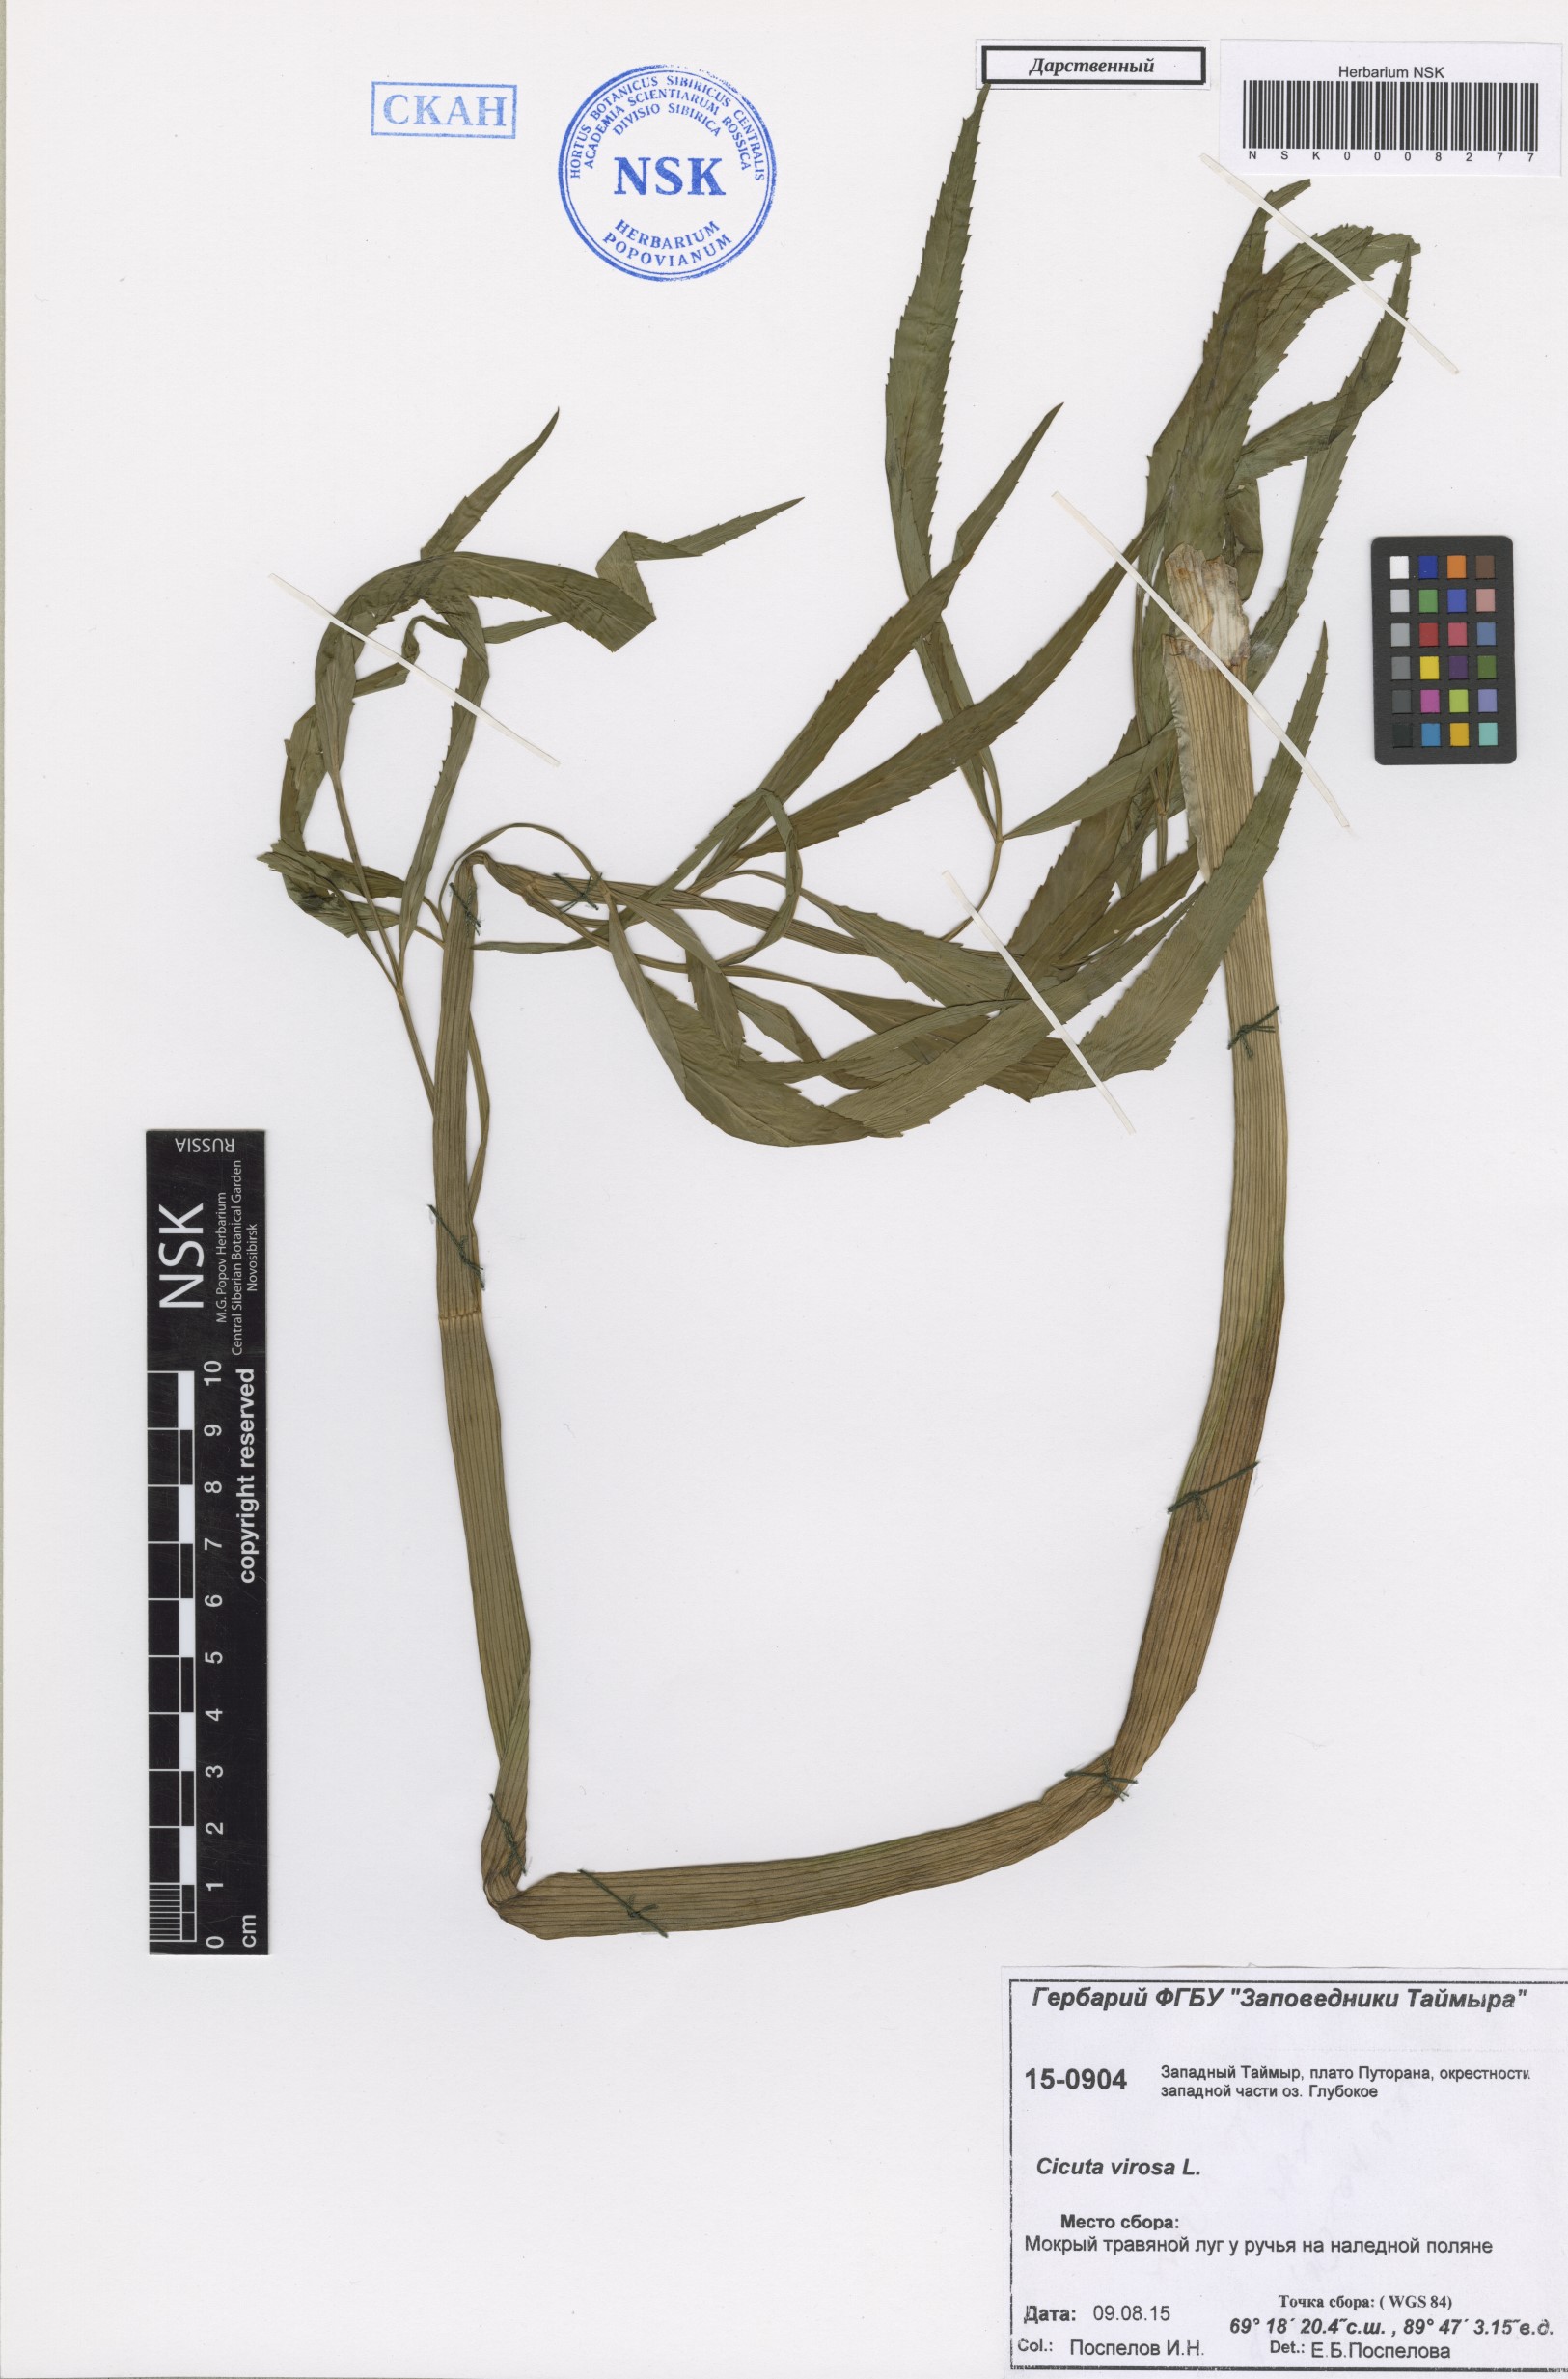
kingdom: Plantae
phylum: Tracheophyta
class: Magnoliopsida
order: Apiales
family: Apiaceae
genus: Cicuta
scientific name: Cicuta virosa
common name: Cowbane
